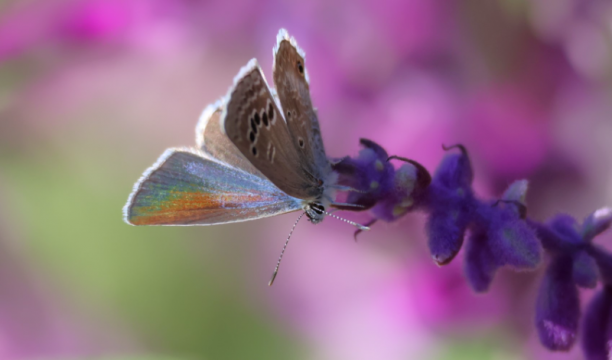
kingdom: Animalia
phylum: Arthropoda
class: Insecta
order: Lepidoptera
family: Lycaenidae
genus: Echinargus
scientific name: Echinargus isola
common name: Reakirt's Blue
